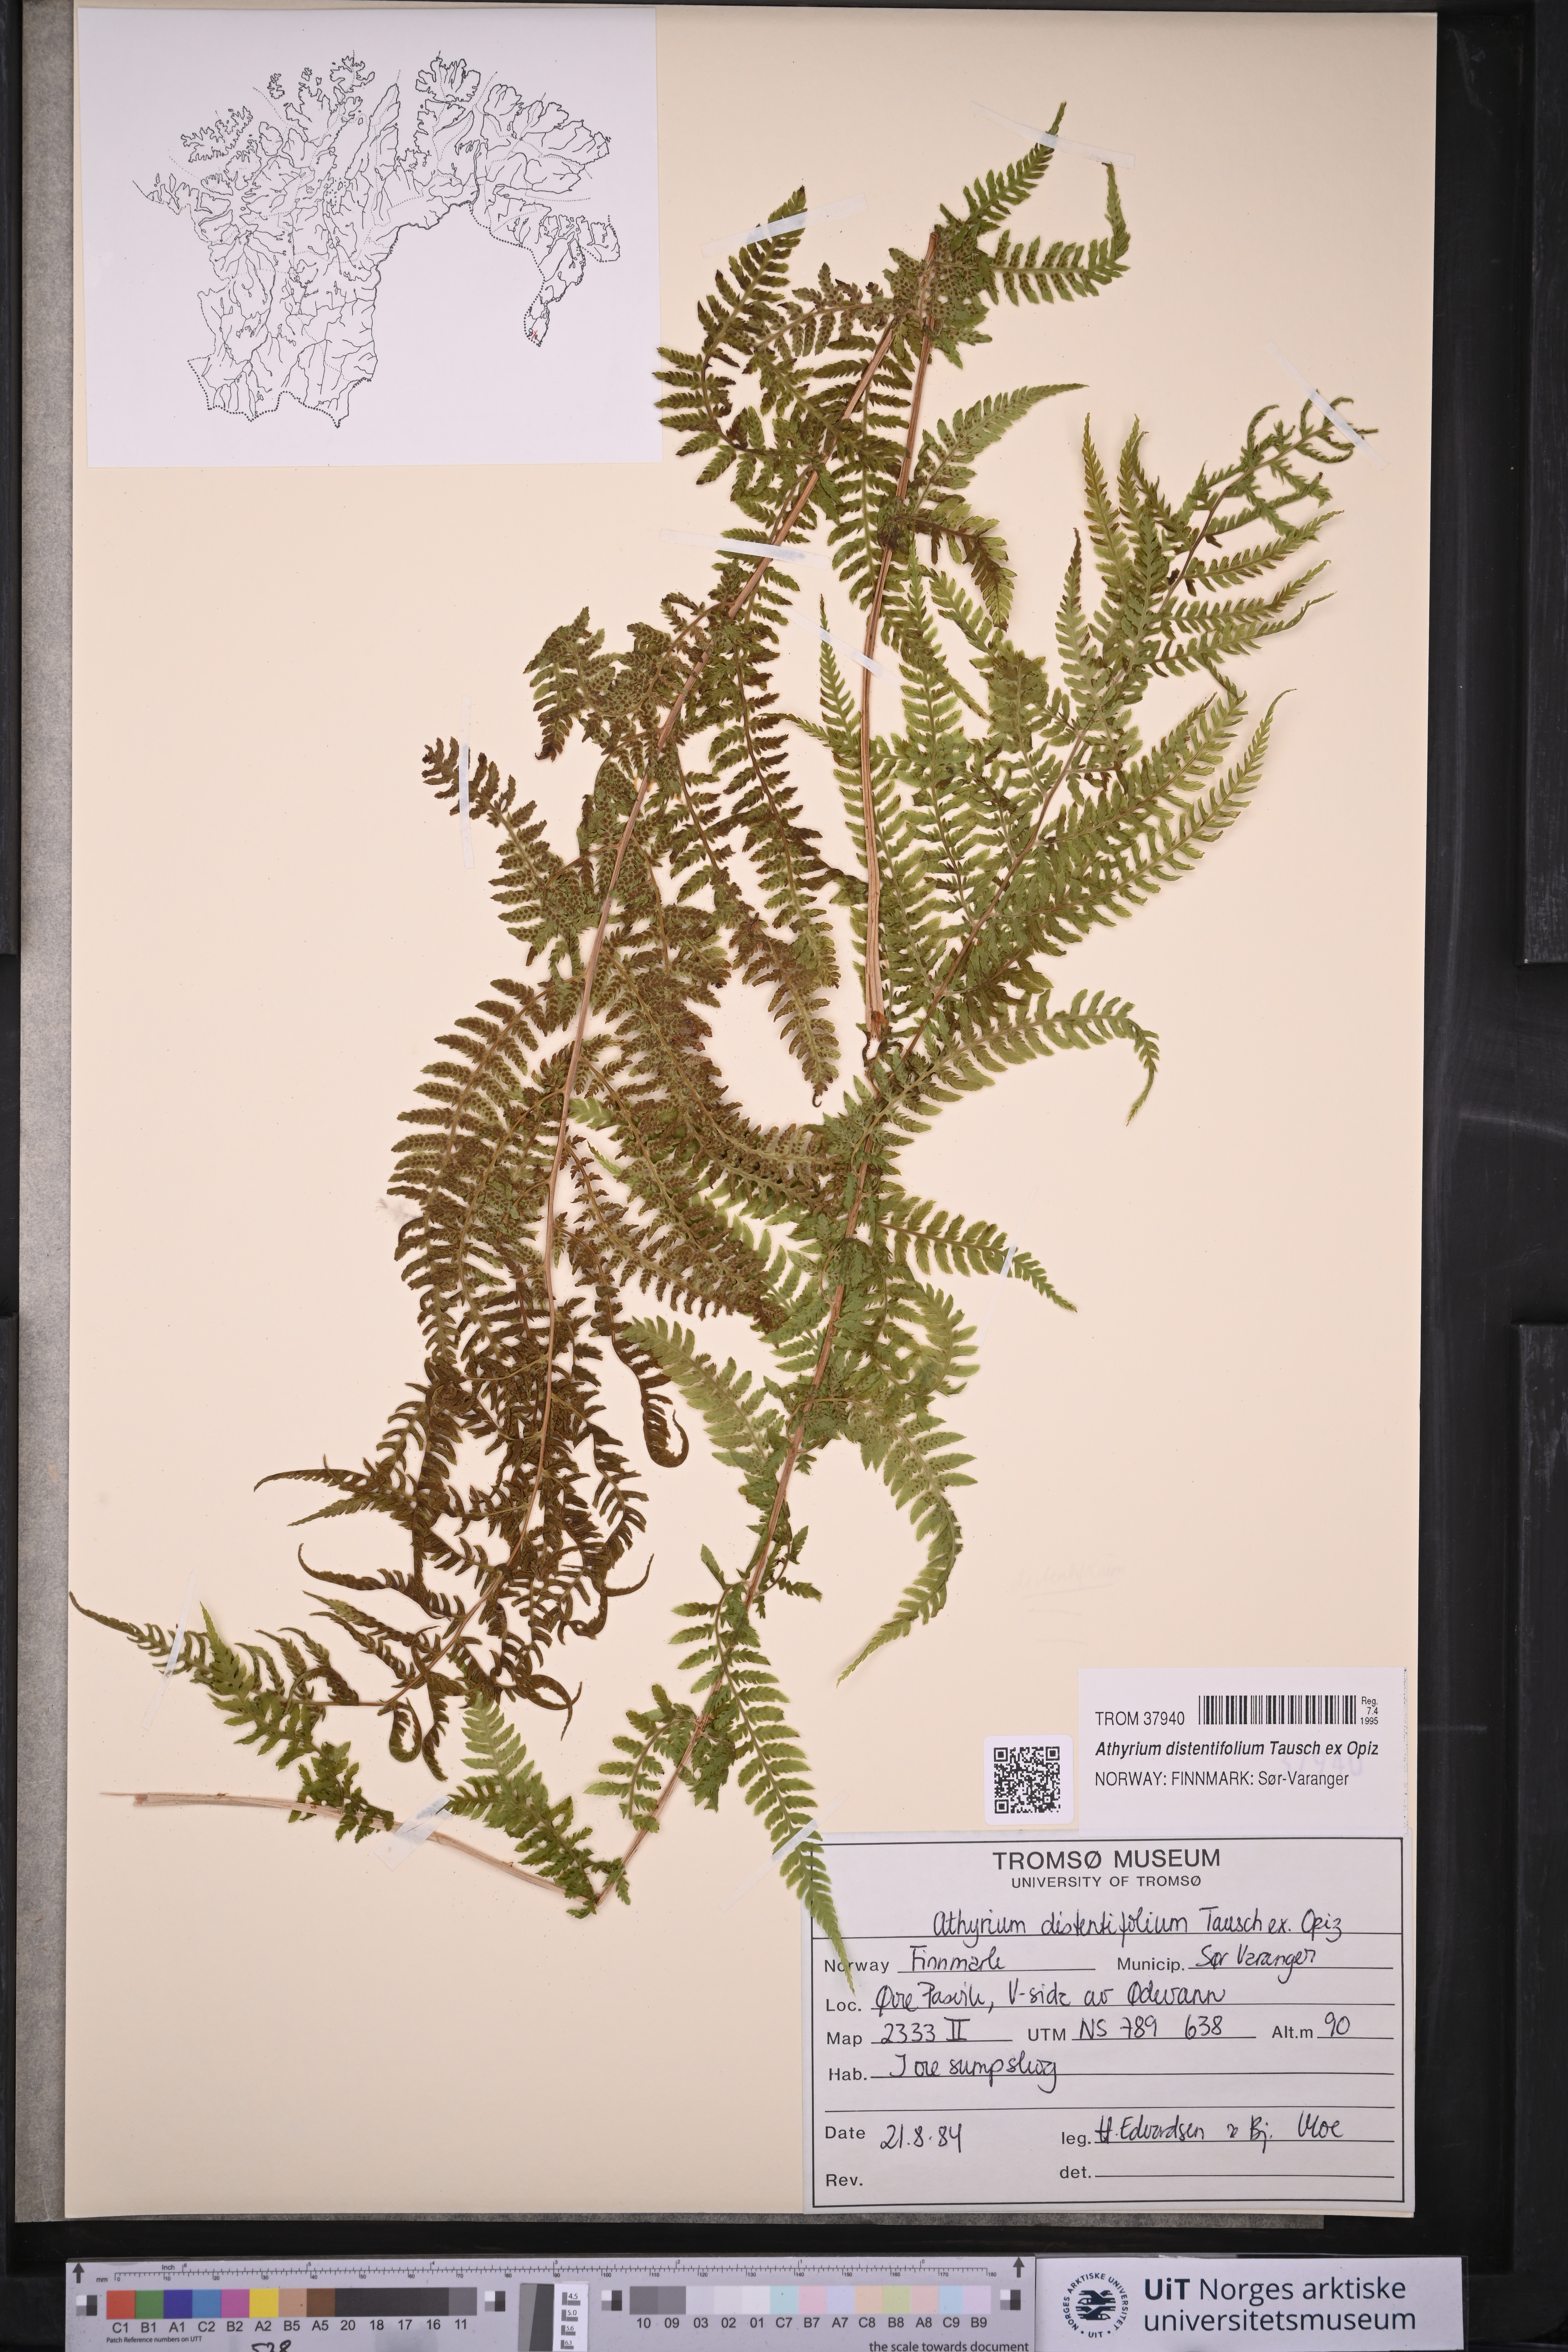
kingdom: Plantae
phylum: Tracheophyta
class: Polypodiopsida
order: Polypodiales
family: Athyriaceae
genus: Pseudathyrium
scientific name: Pseudathyrium alpestre
